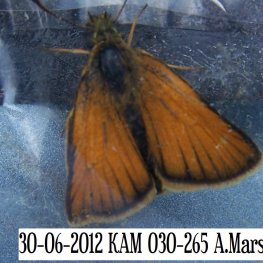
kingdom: Animalia
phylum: Arthropoda
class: Insecta
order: Lepidoptera
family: Hesperiidae
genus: Thymelicus
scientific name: Thymelicus lineola
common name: European Skipper
